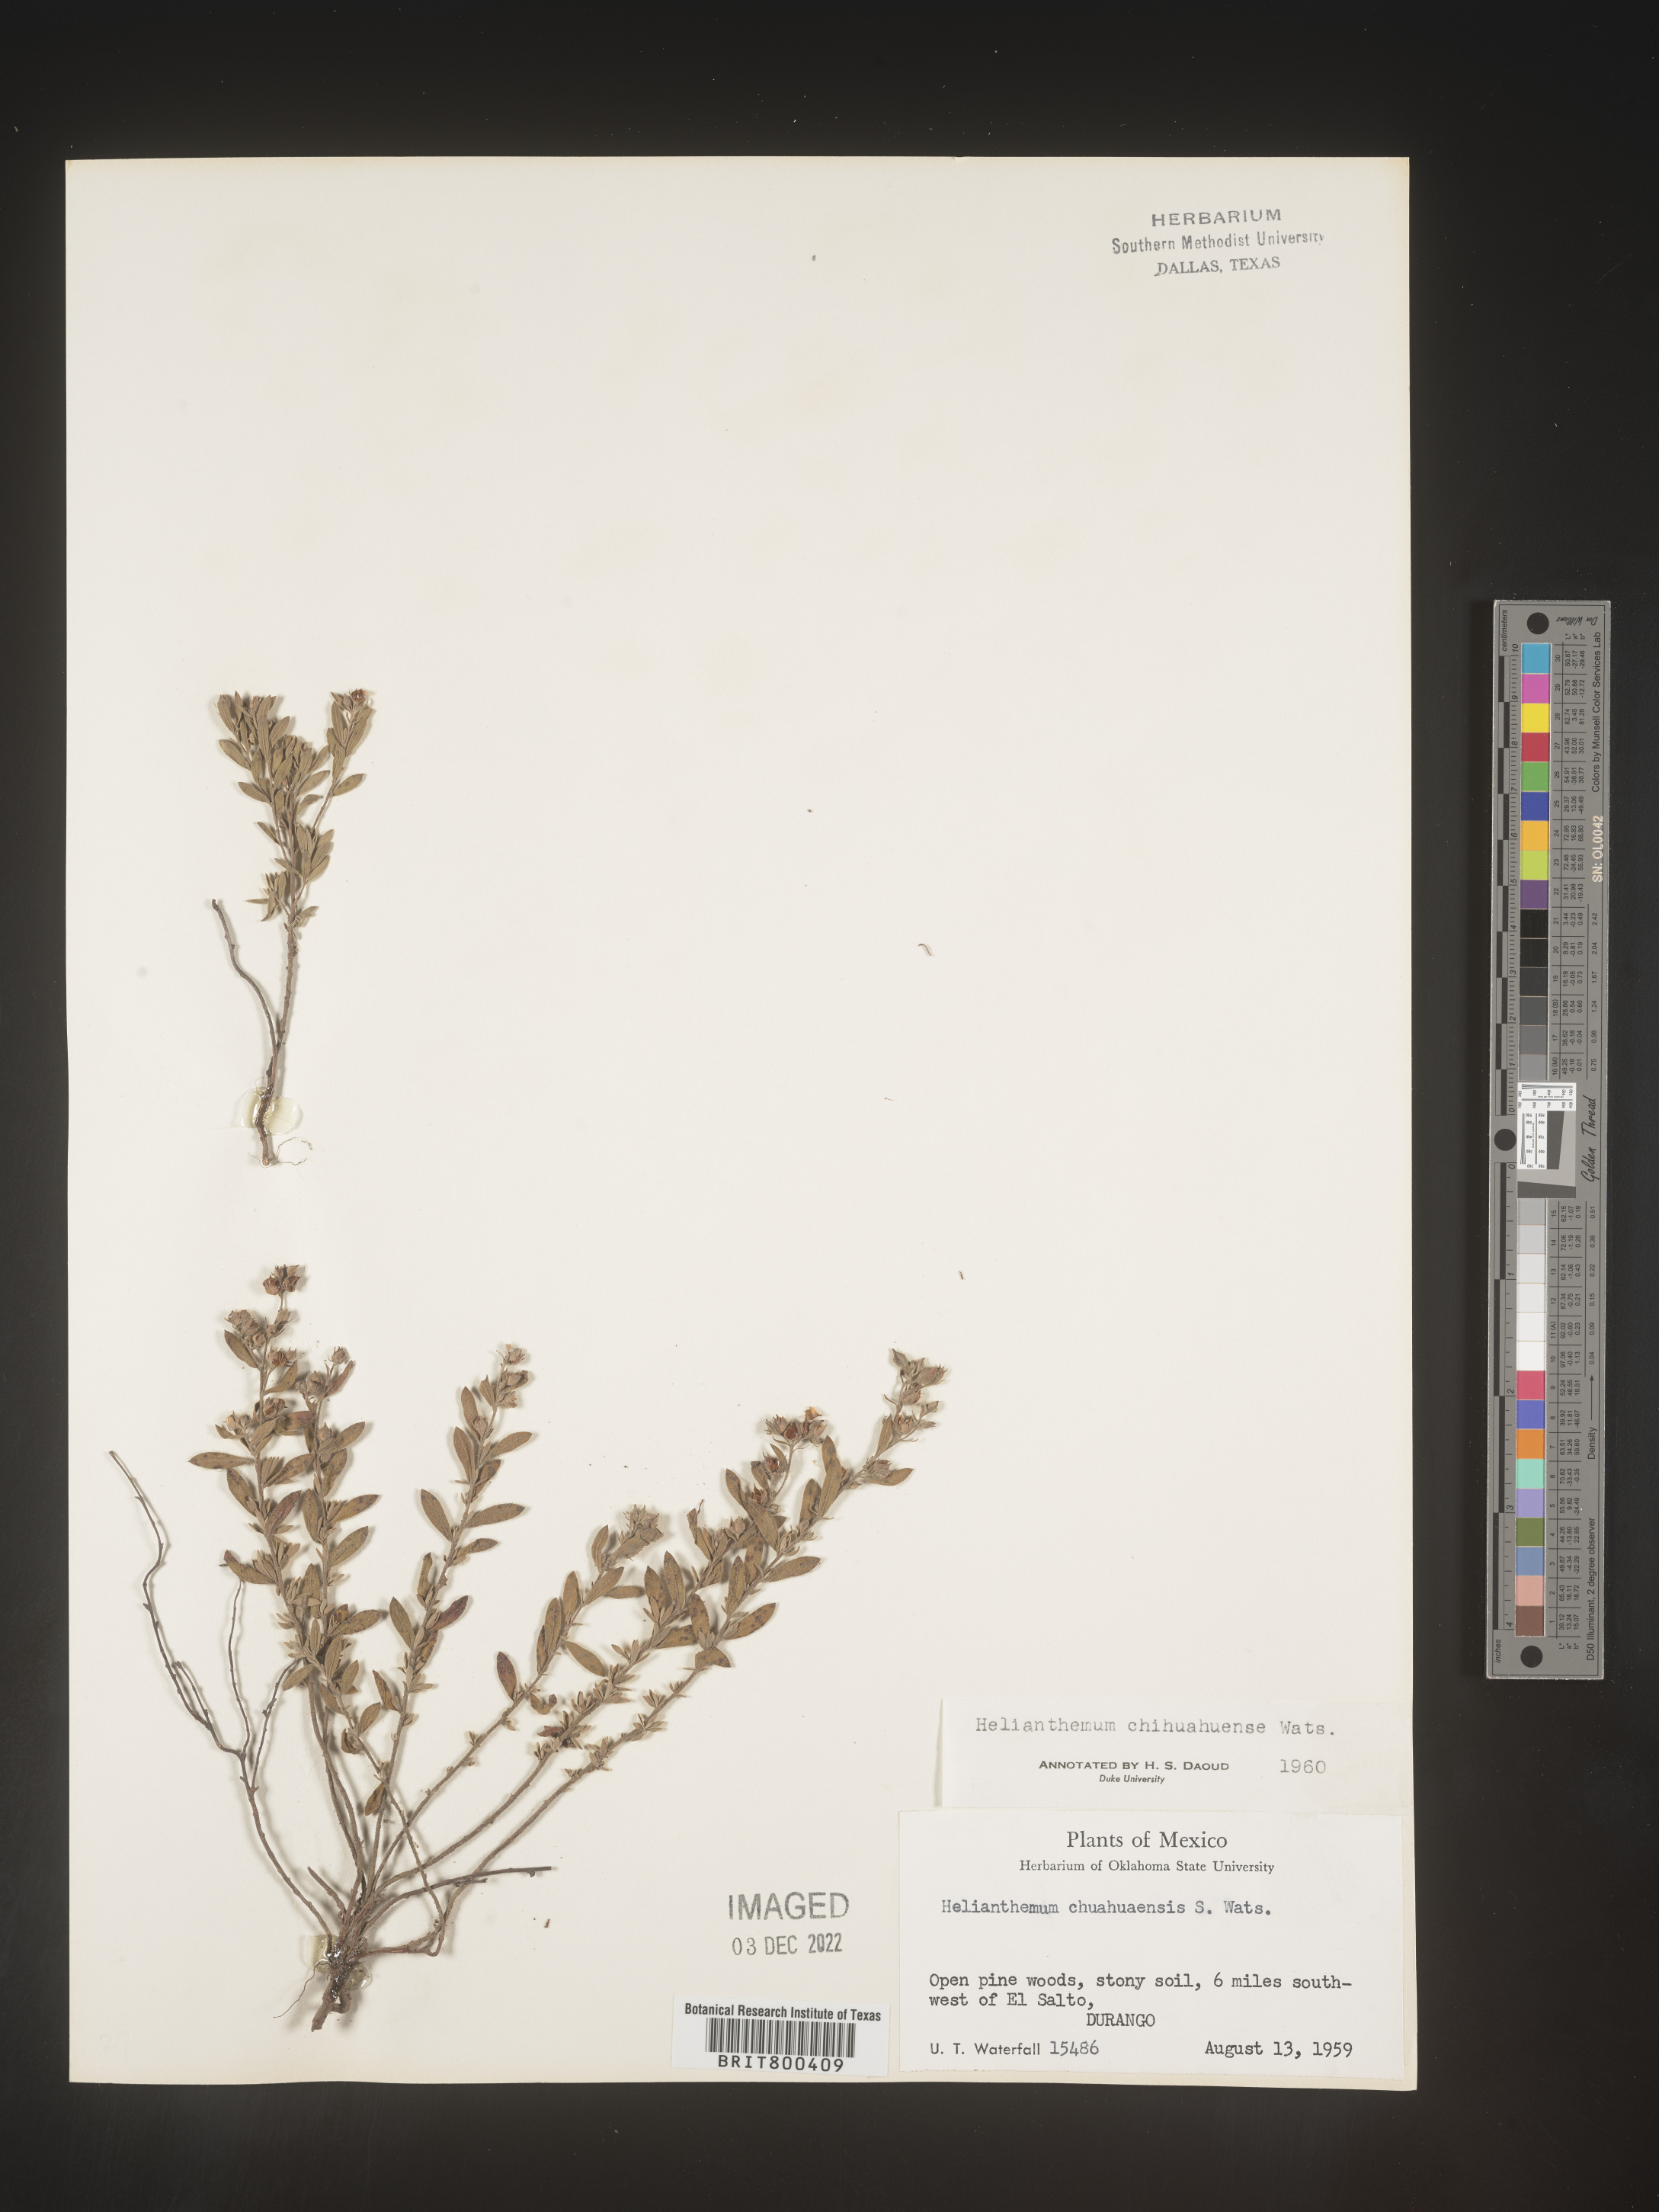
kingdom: Plantae
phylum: Tracheophyta
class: Magnoliopsida
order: Malvales
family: Cistaceae
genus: Helianthemum
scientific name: Helianthemum
